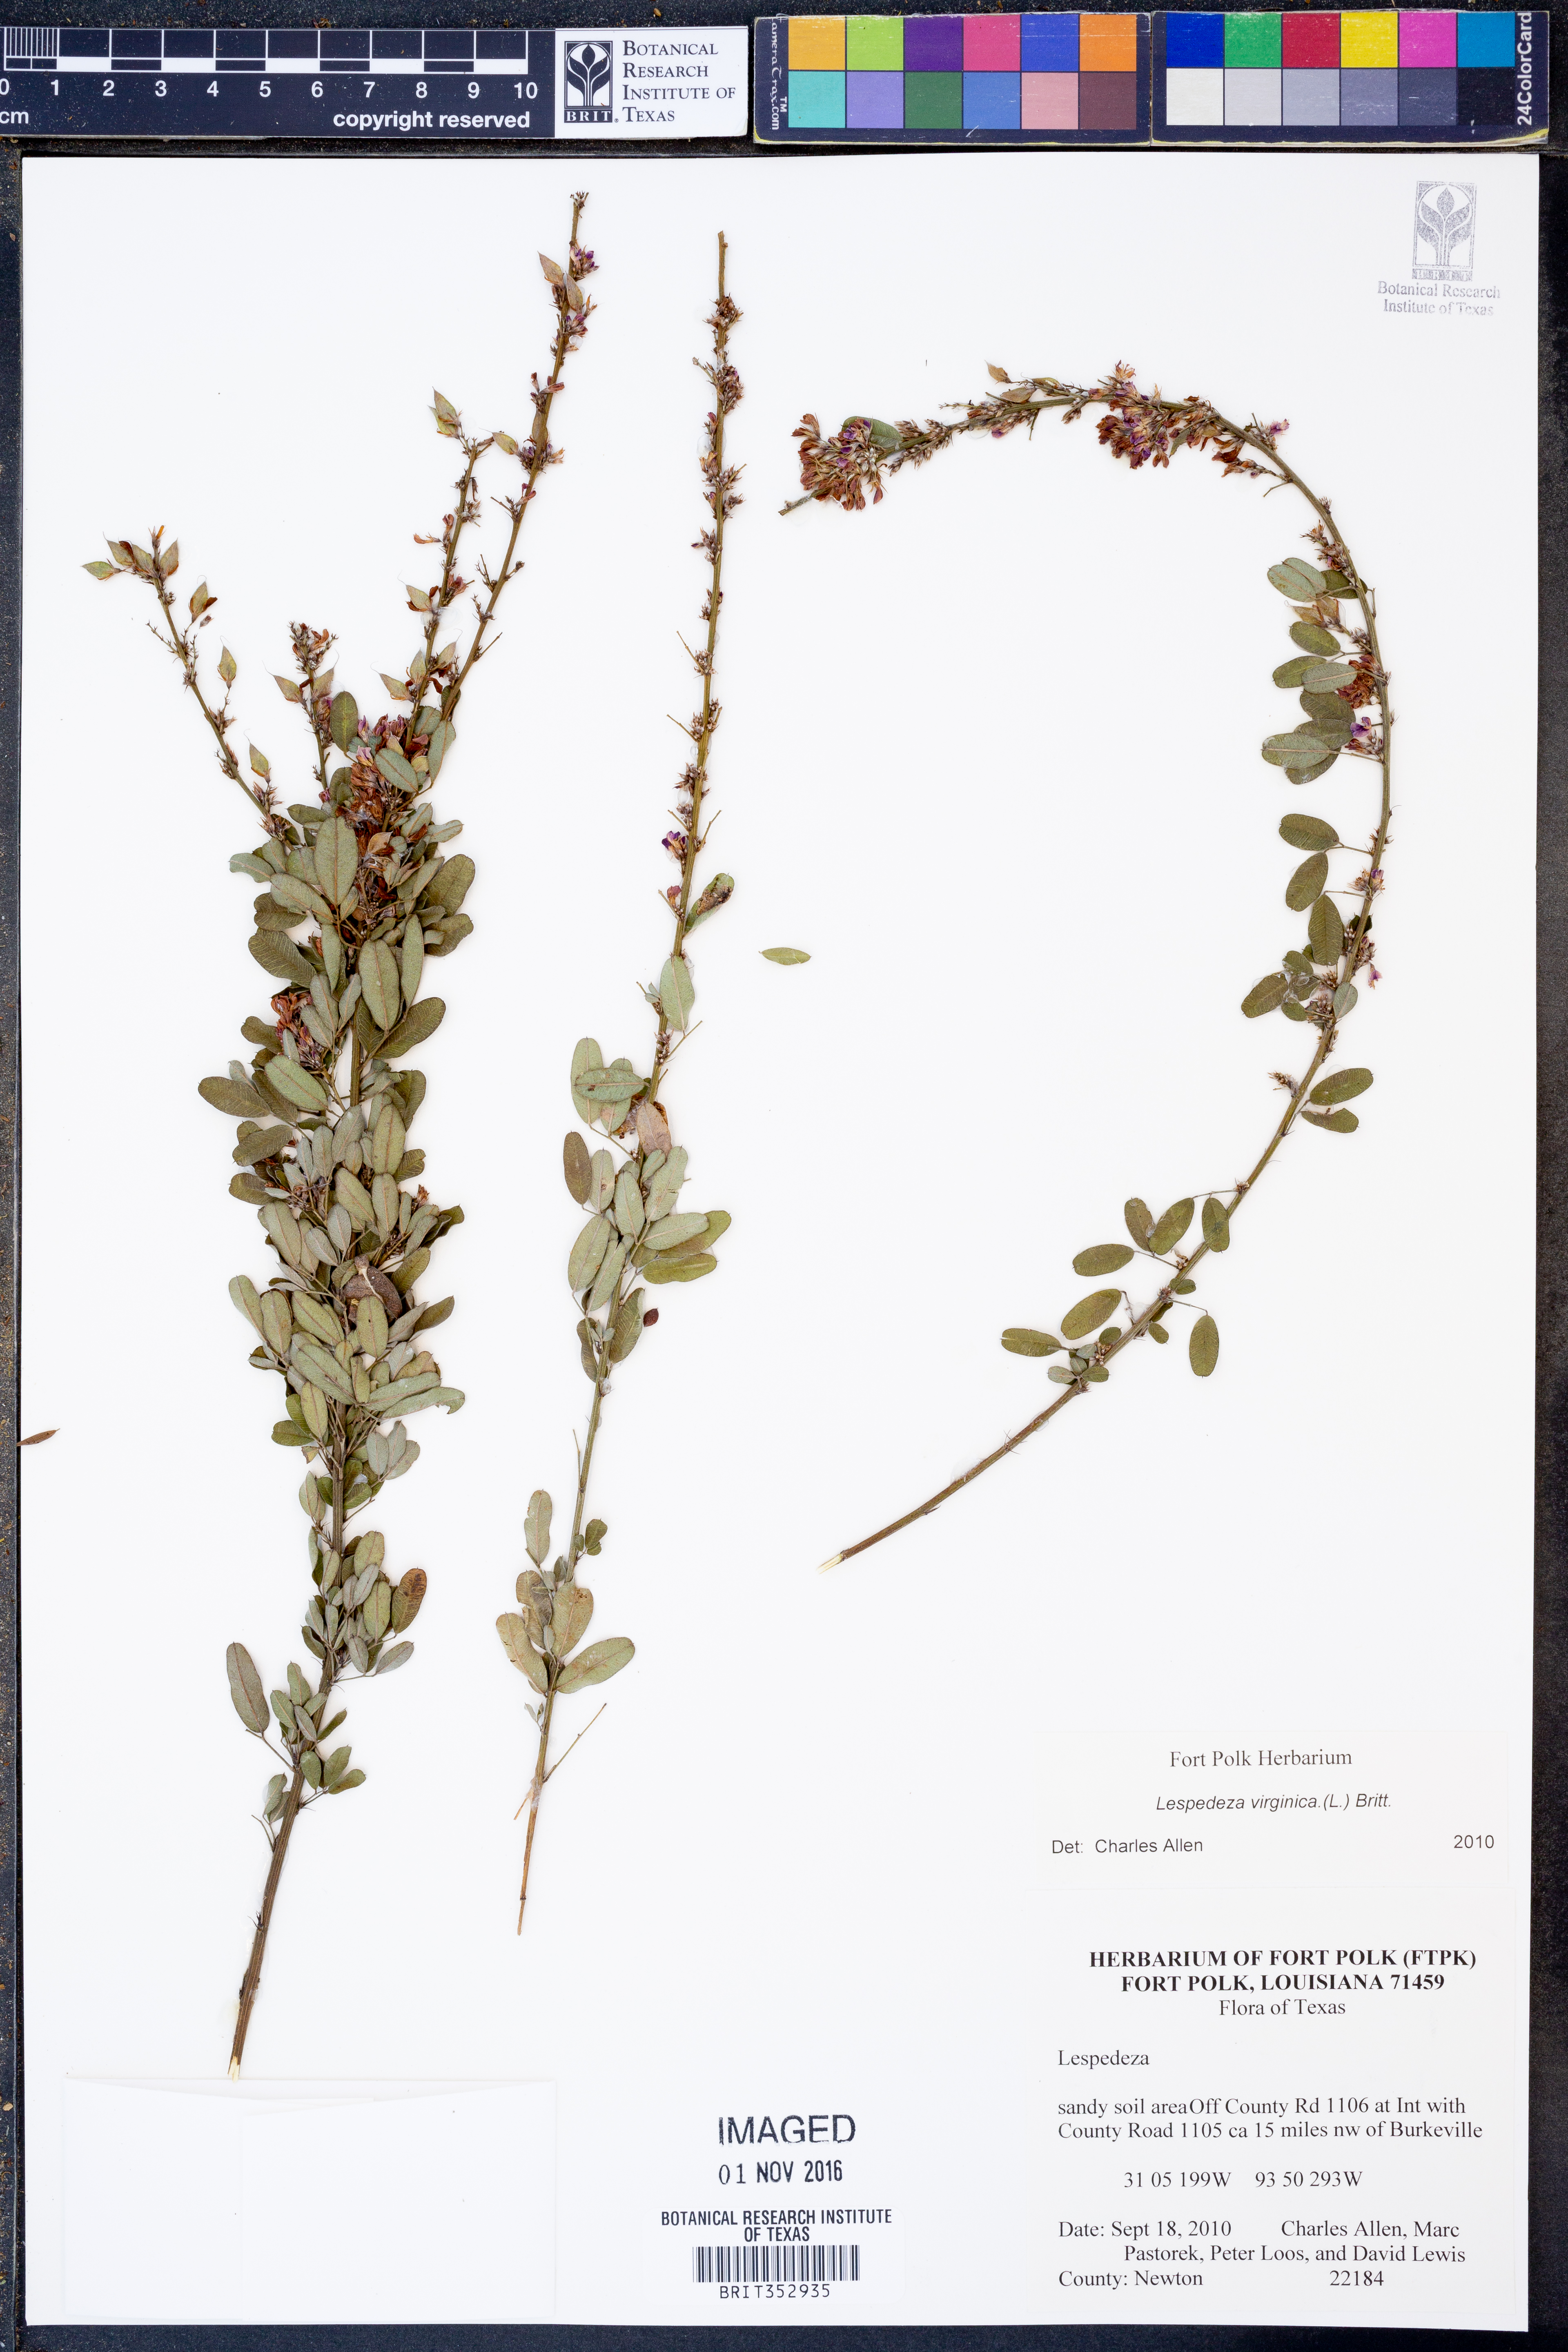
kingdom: Plantae
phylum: Tracheophyta
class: Magnoliopsida
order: Fabales
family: Fabaceae
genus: Lespedeza
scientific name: Lespedeza virginica
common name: Slender bush-clover
